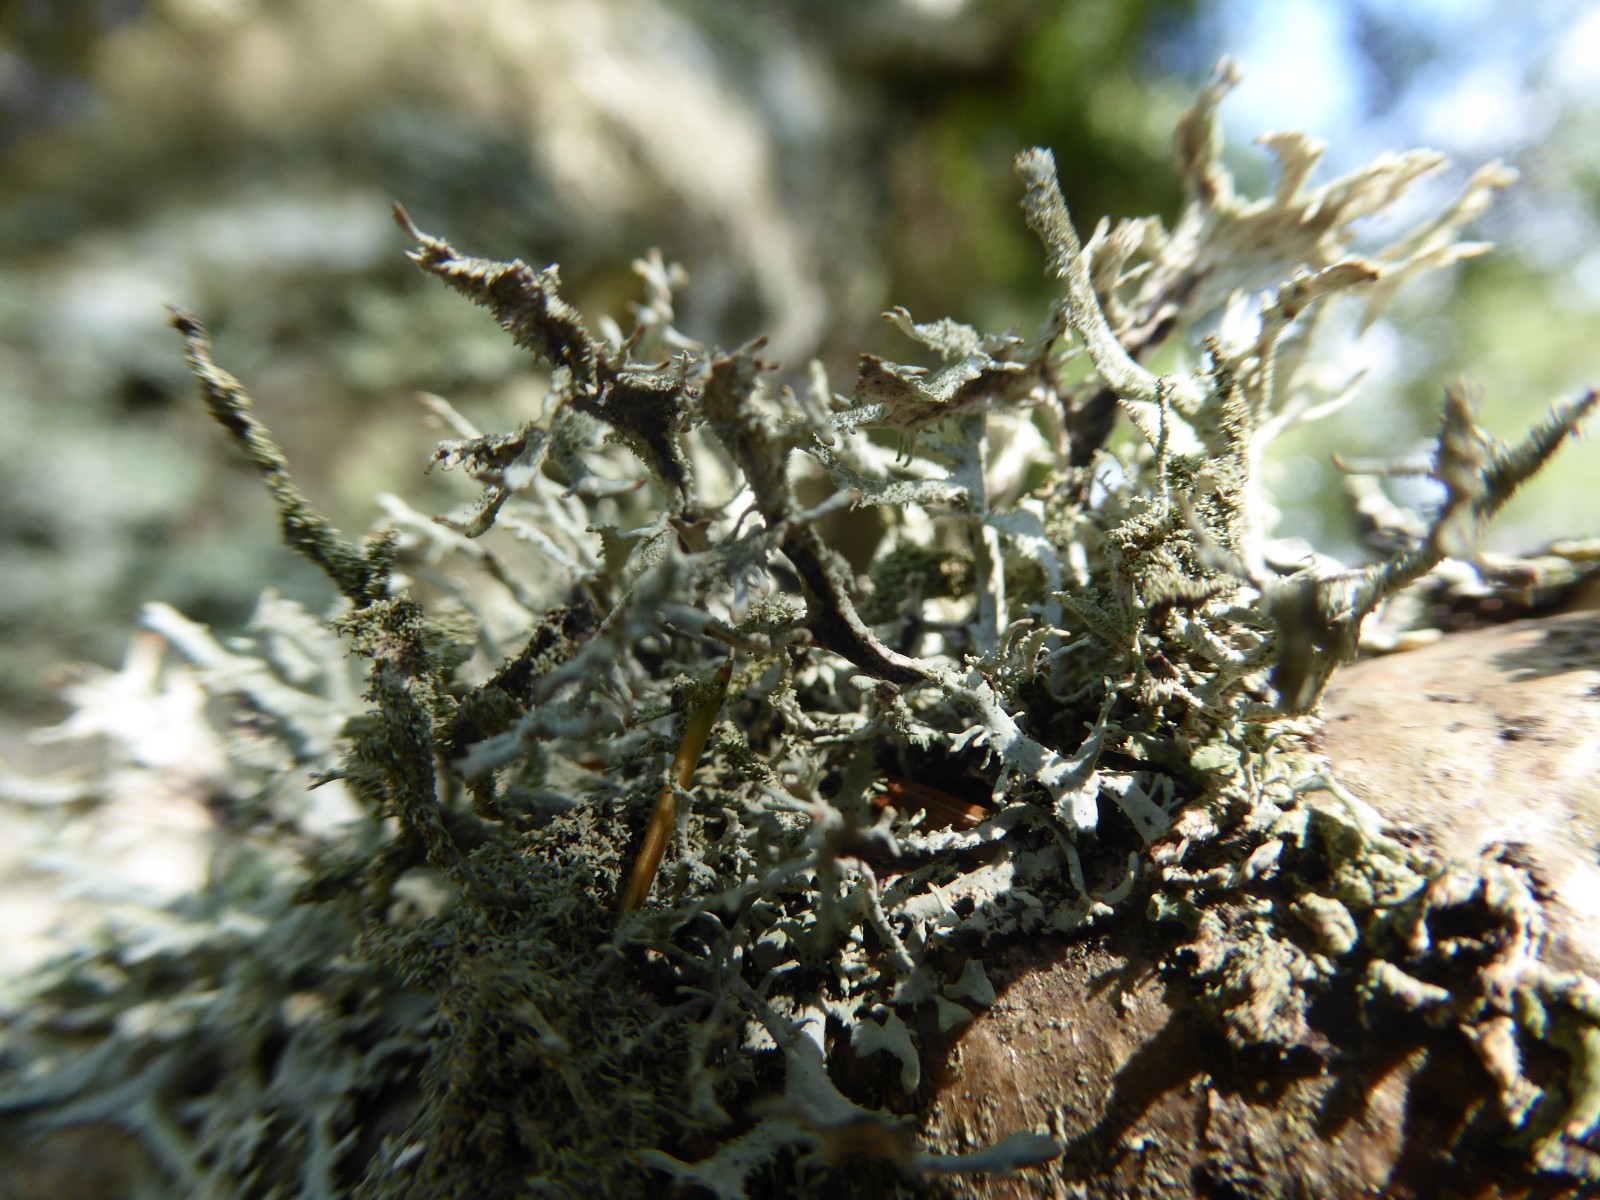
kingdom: Fungi
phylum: Ascomycota
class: Lecanoromycetes
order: Lecanorales
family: Parmeliaceae
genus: Pseudevernia
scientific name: Pseudevernia furfuracea
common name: grå fyrrelav
